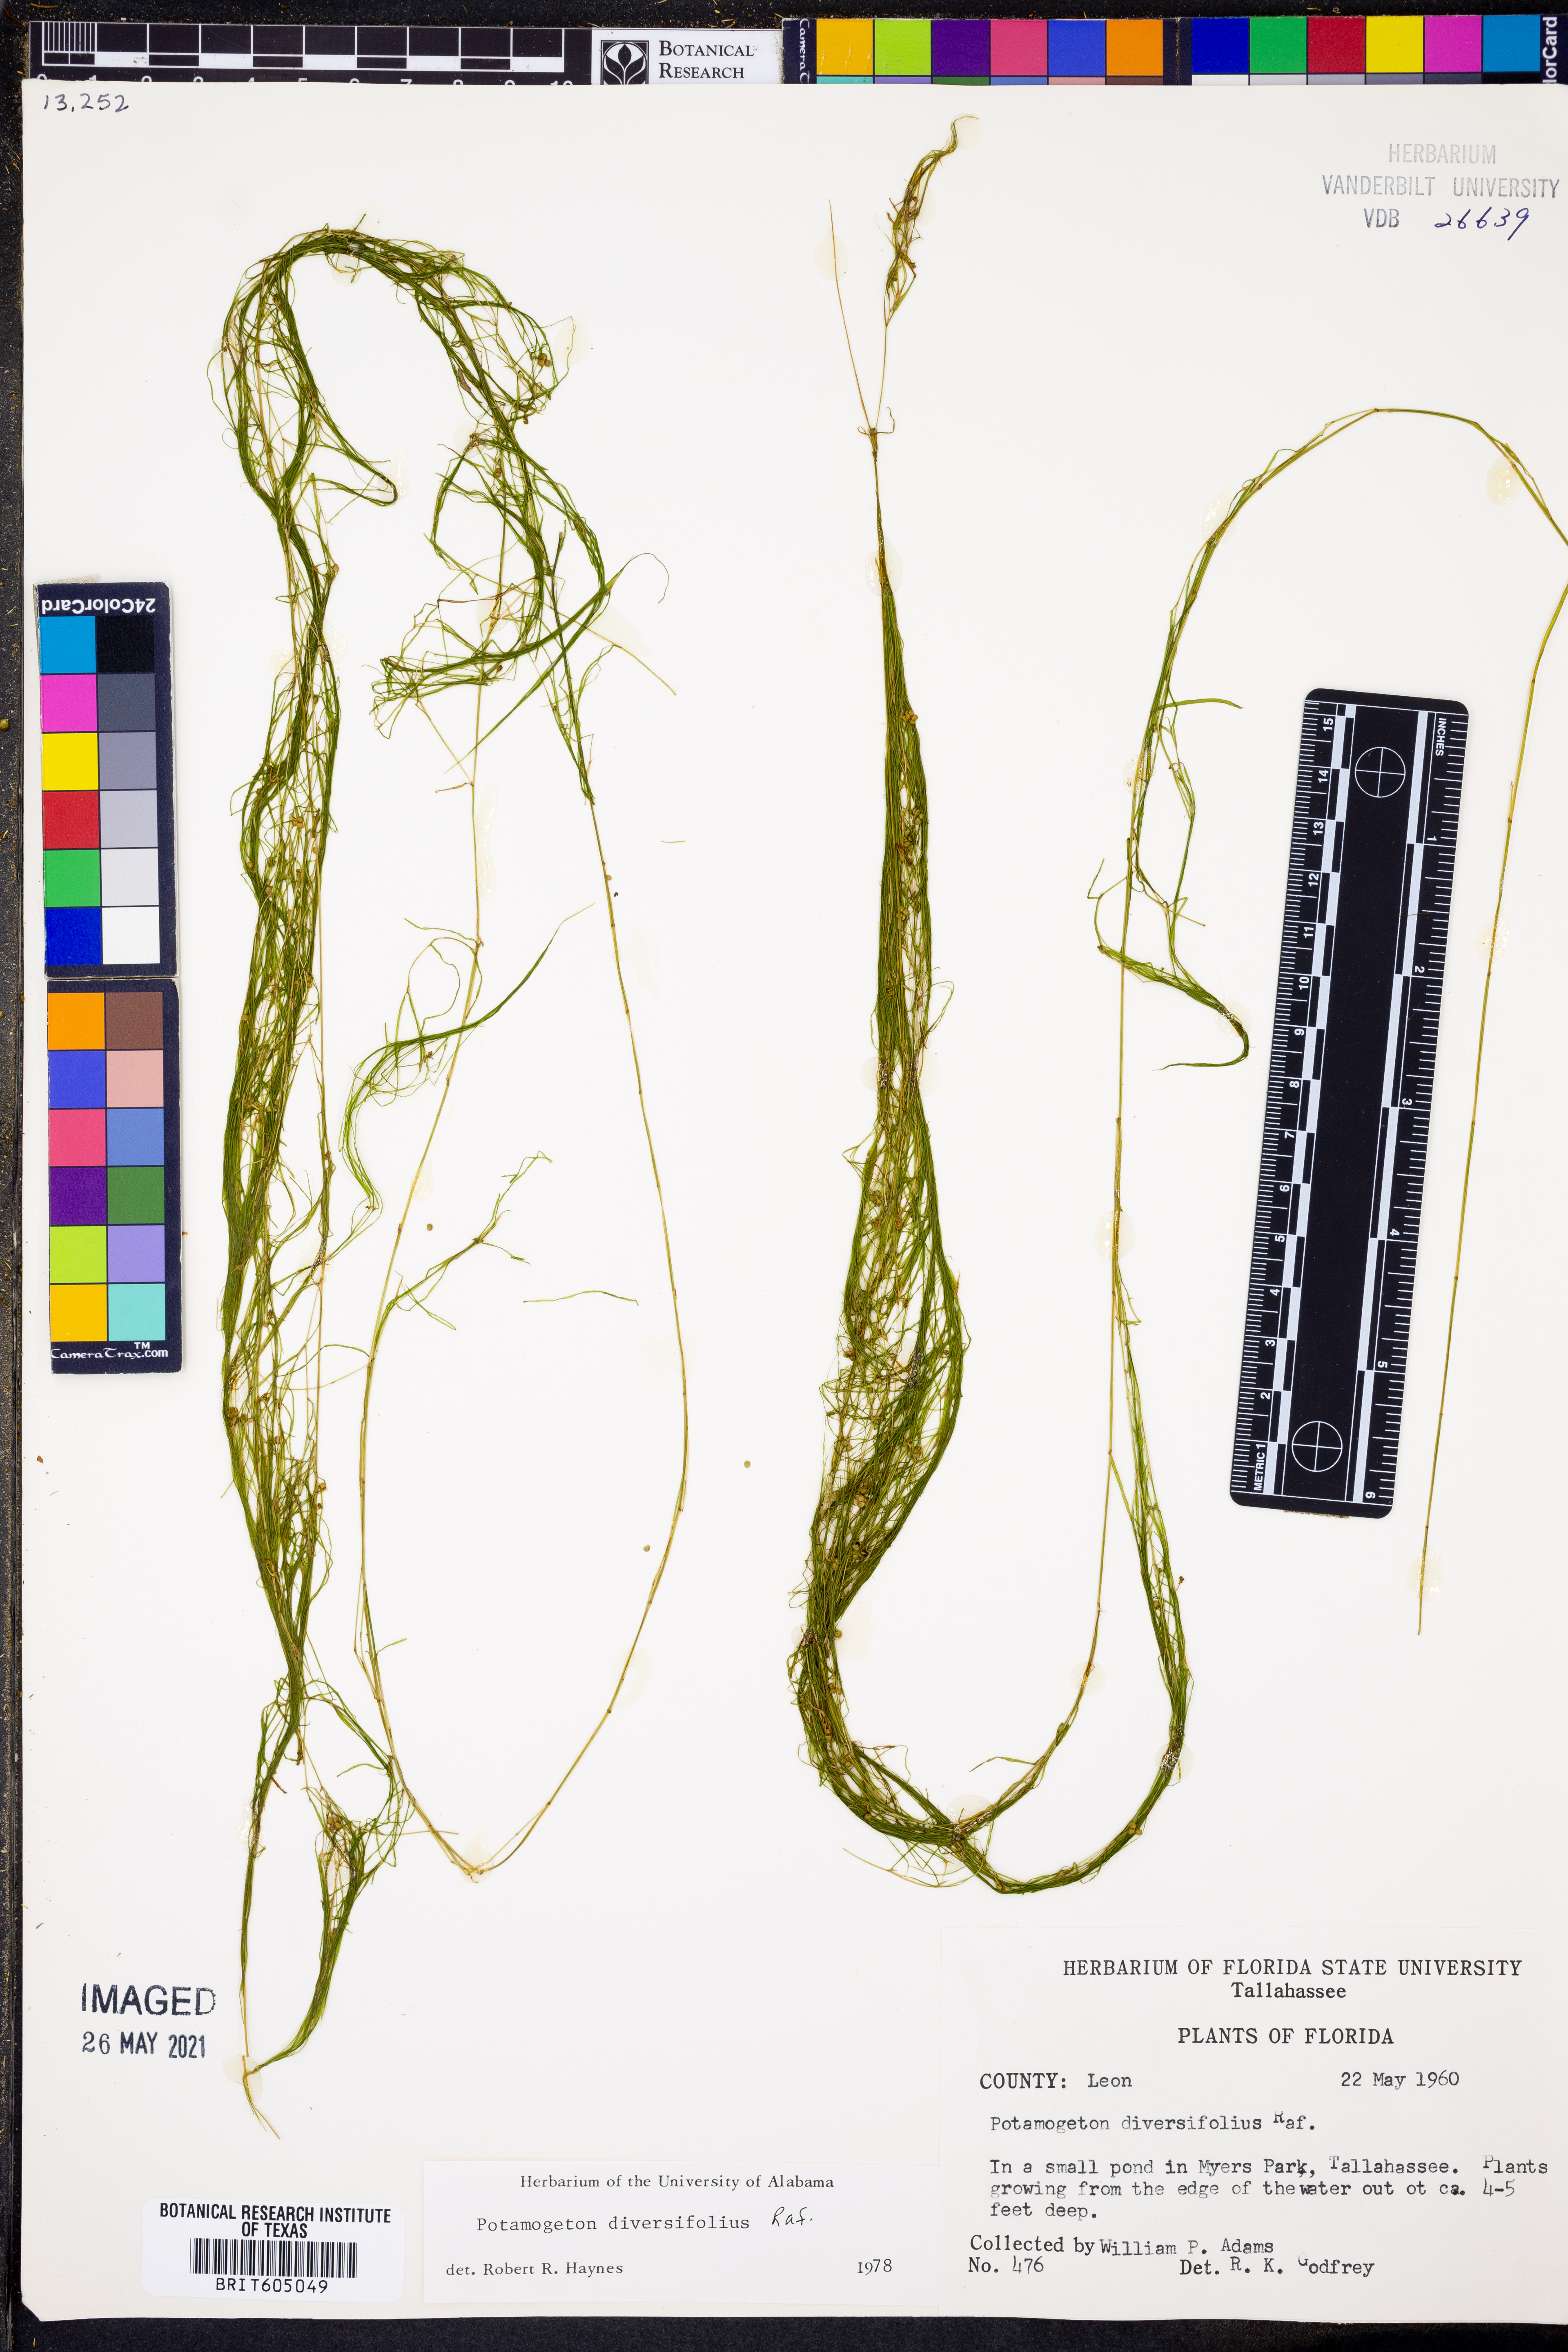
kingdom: Plantae
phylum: Tracheophyta
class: Liliopsida
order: Alismatales
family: Potamogetonaceae
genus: Potamogeton
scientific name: Potamogeton diversifolius
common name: Water-thread pondweed
